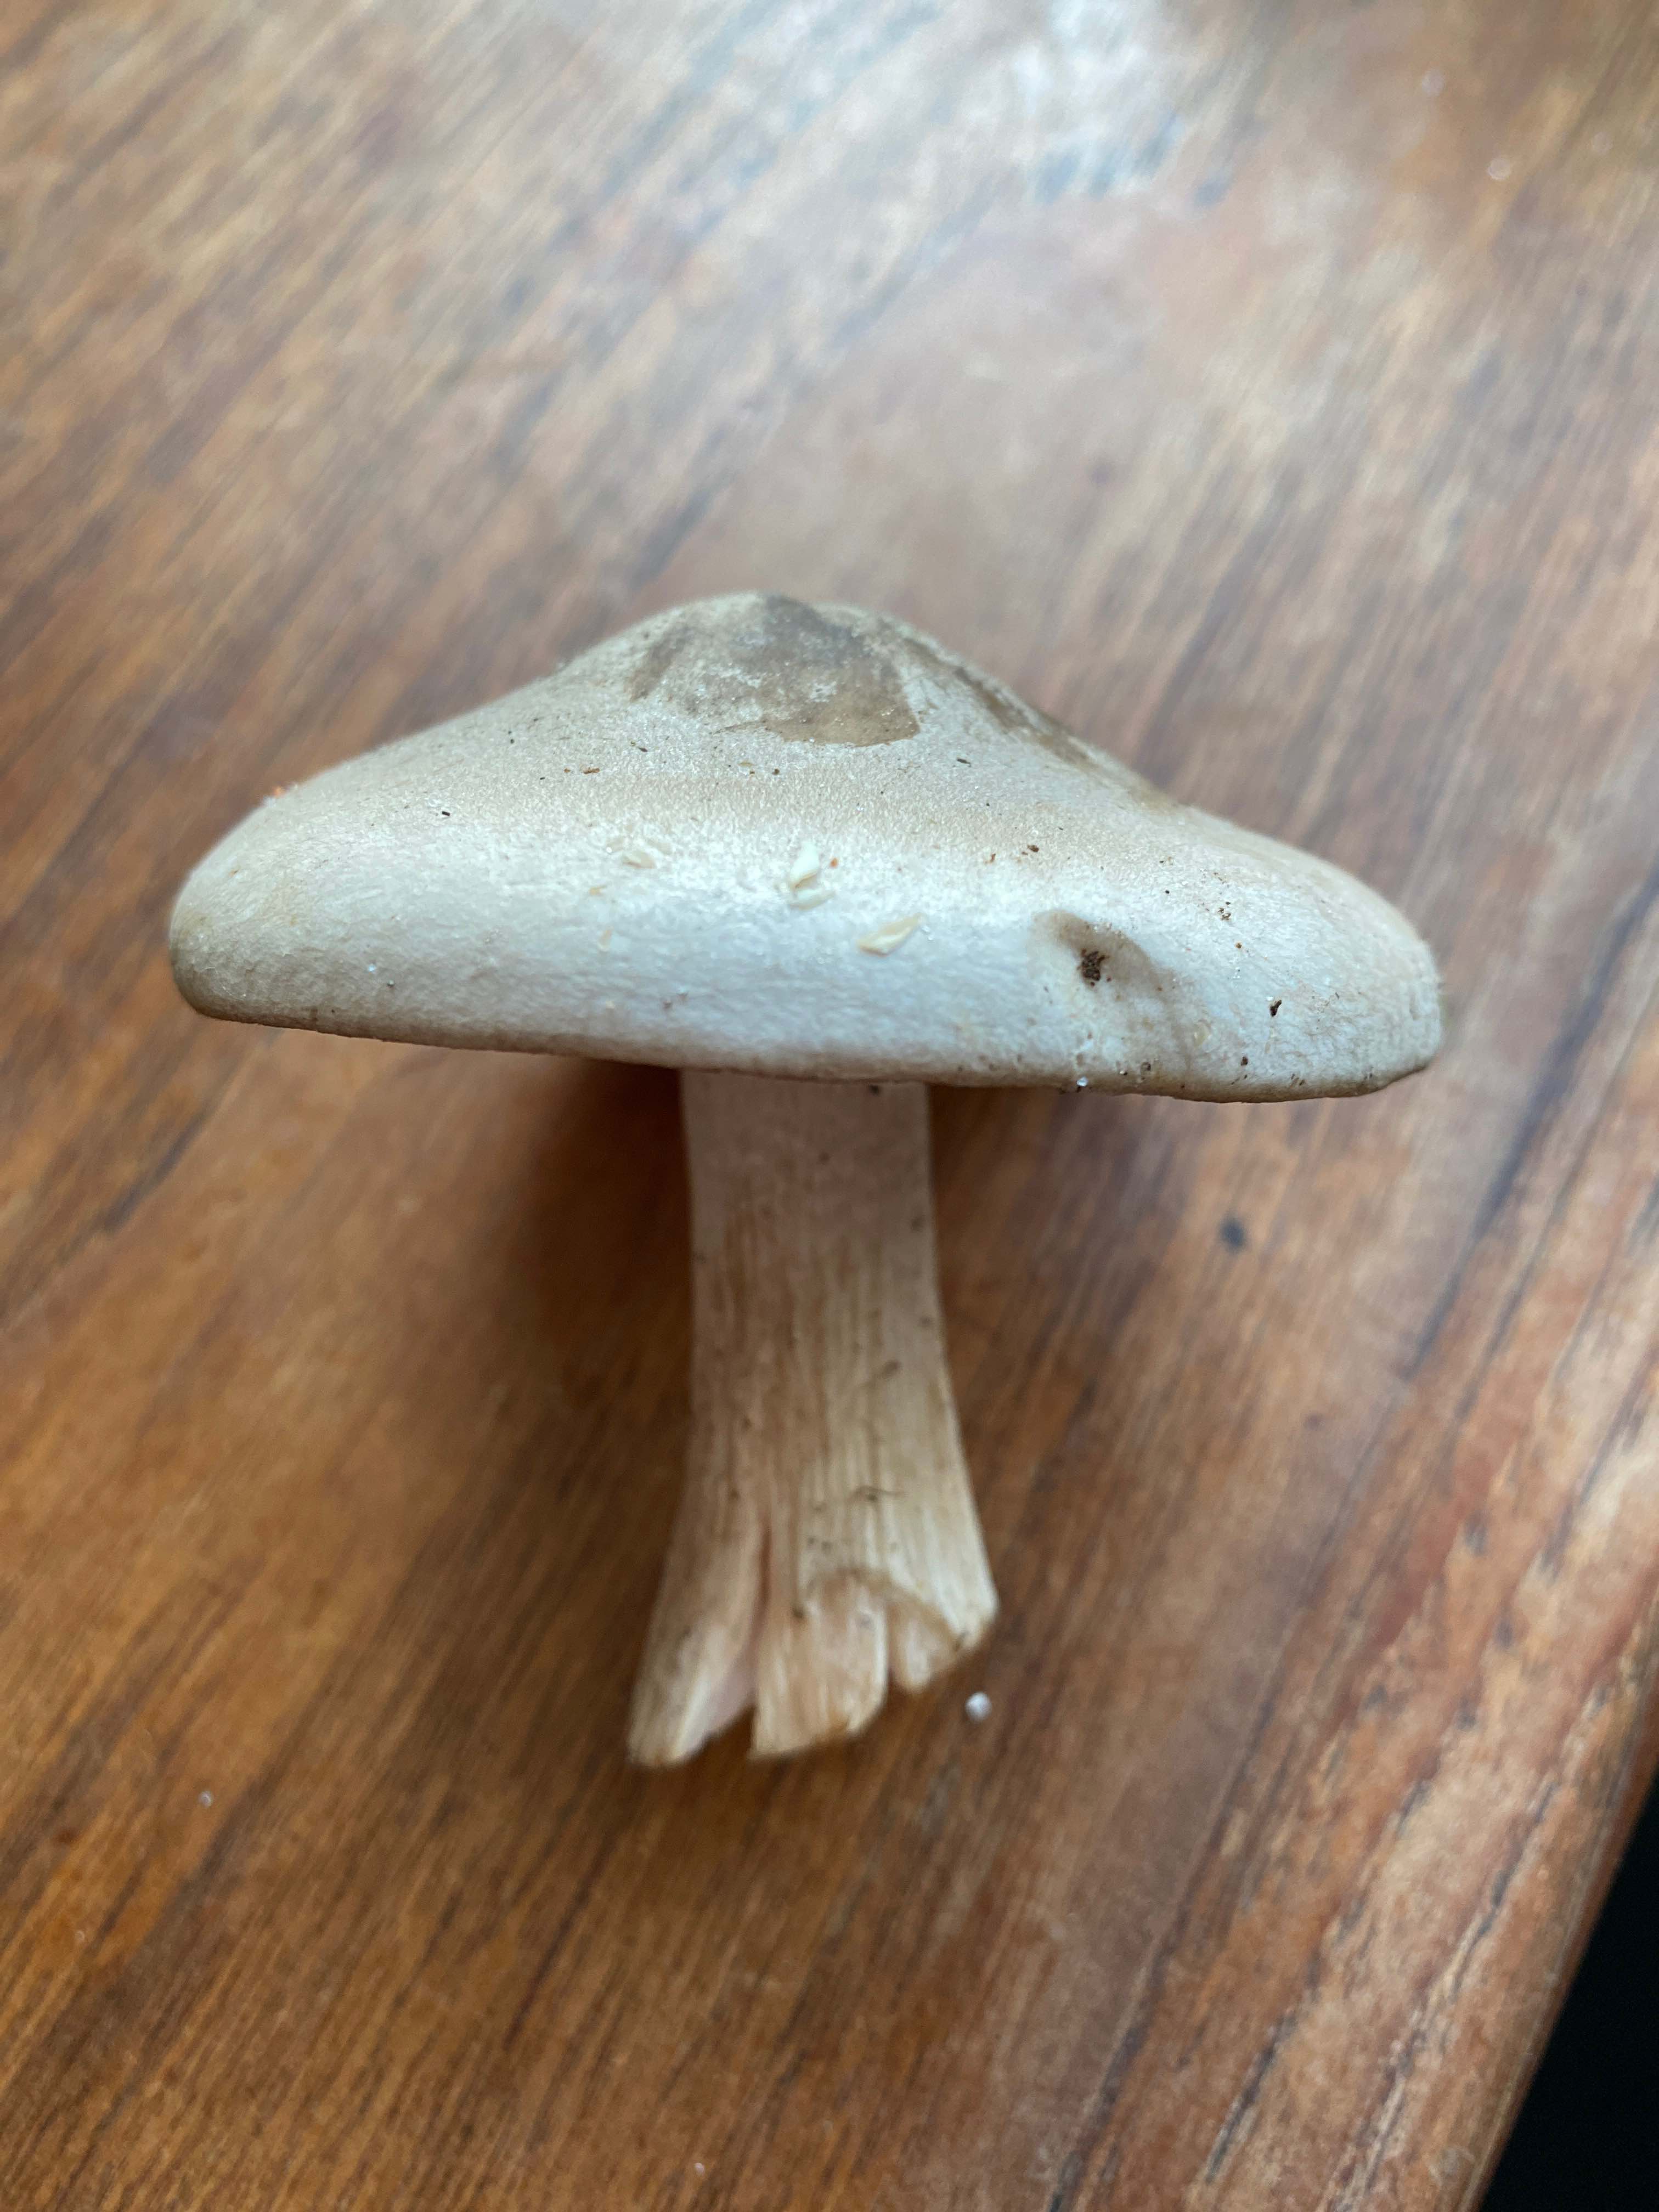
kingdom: Fungi
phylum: Basidiomycota
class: Agaricomycetes
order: Agaricales
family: Tricholomataceae
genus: Clitocybe
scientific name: Clitocybe nebularis
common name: tåge-tragthat
